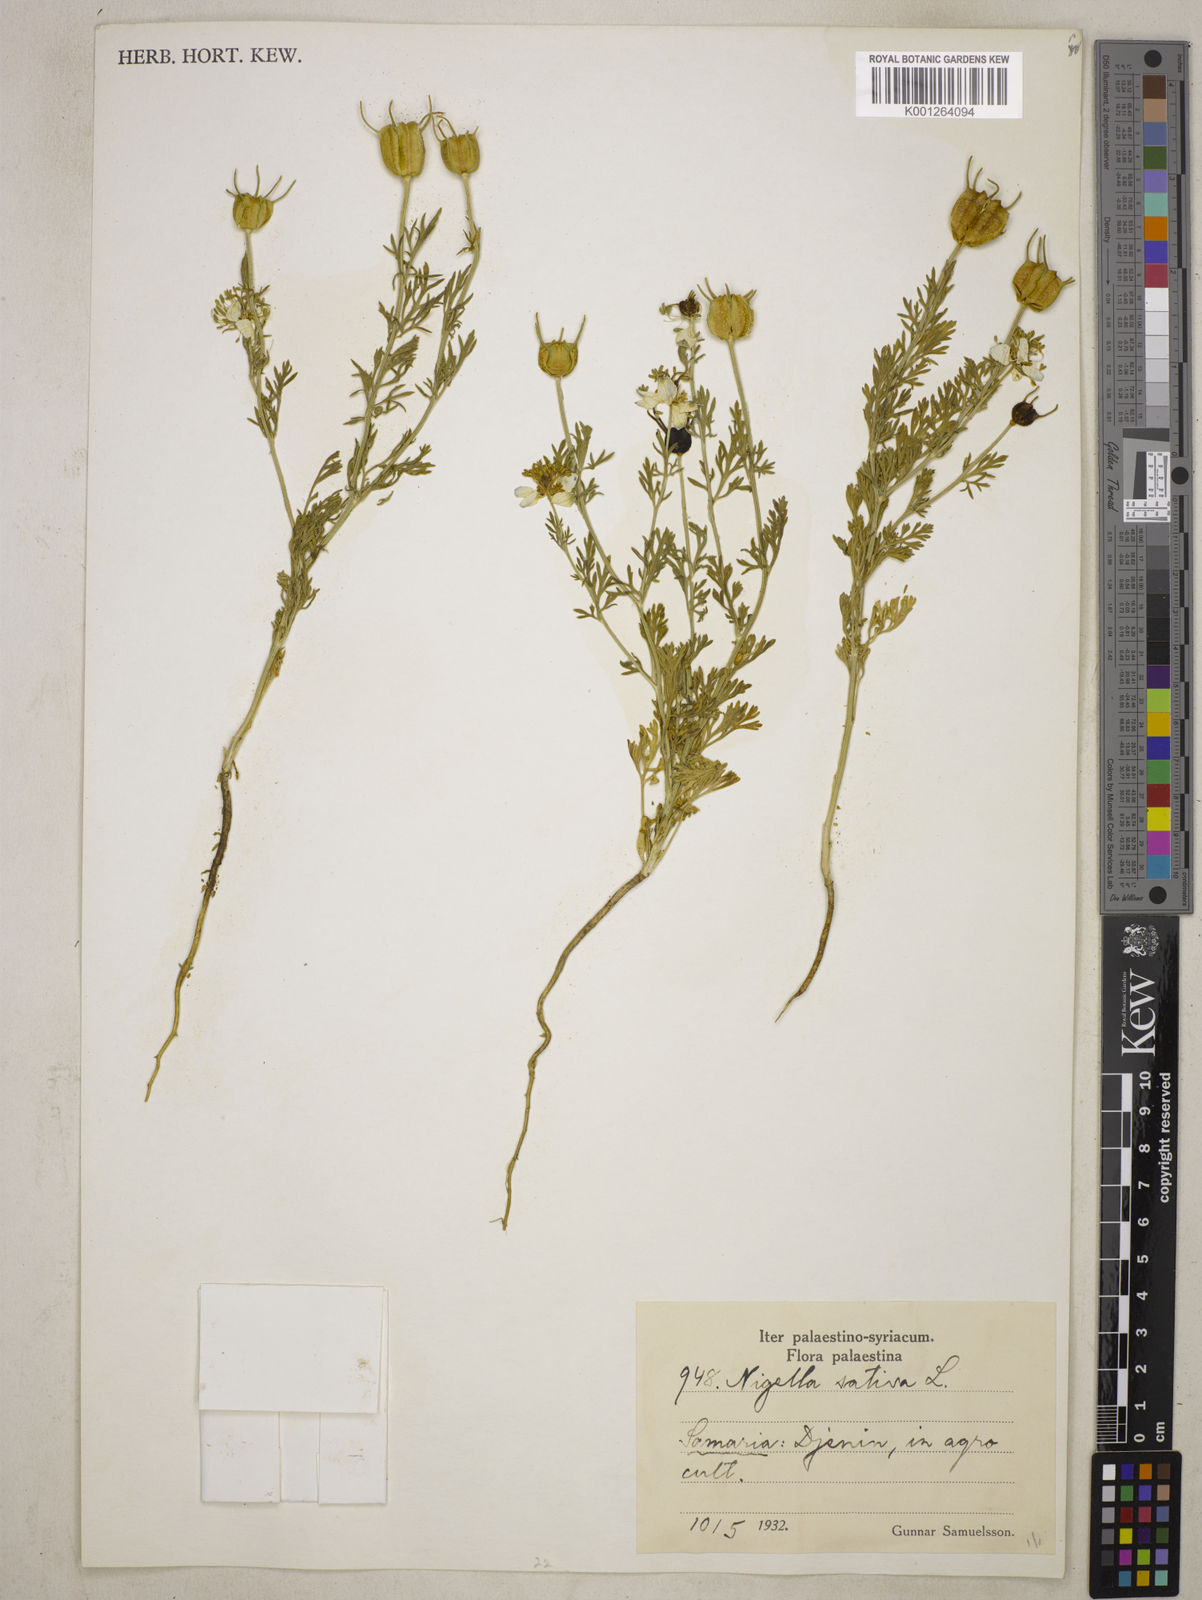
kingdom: Plantae
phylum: Tracheophyta
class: Magnoliopsida
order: Ranunculales
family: Ranunculaceae
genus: Nigella
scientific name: Nigella sativa
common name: Black-cumin
